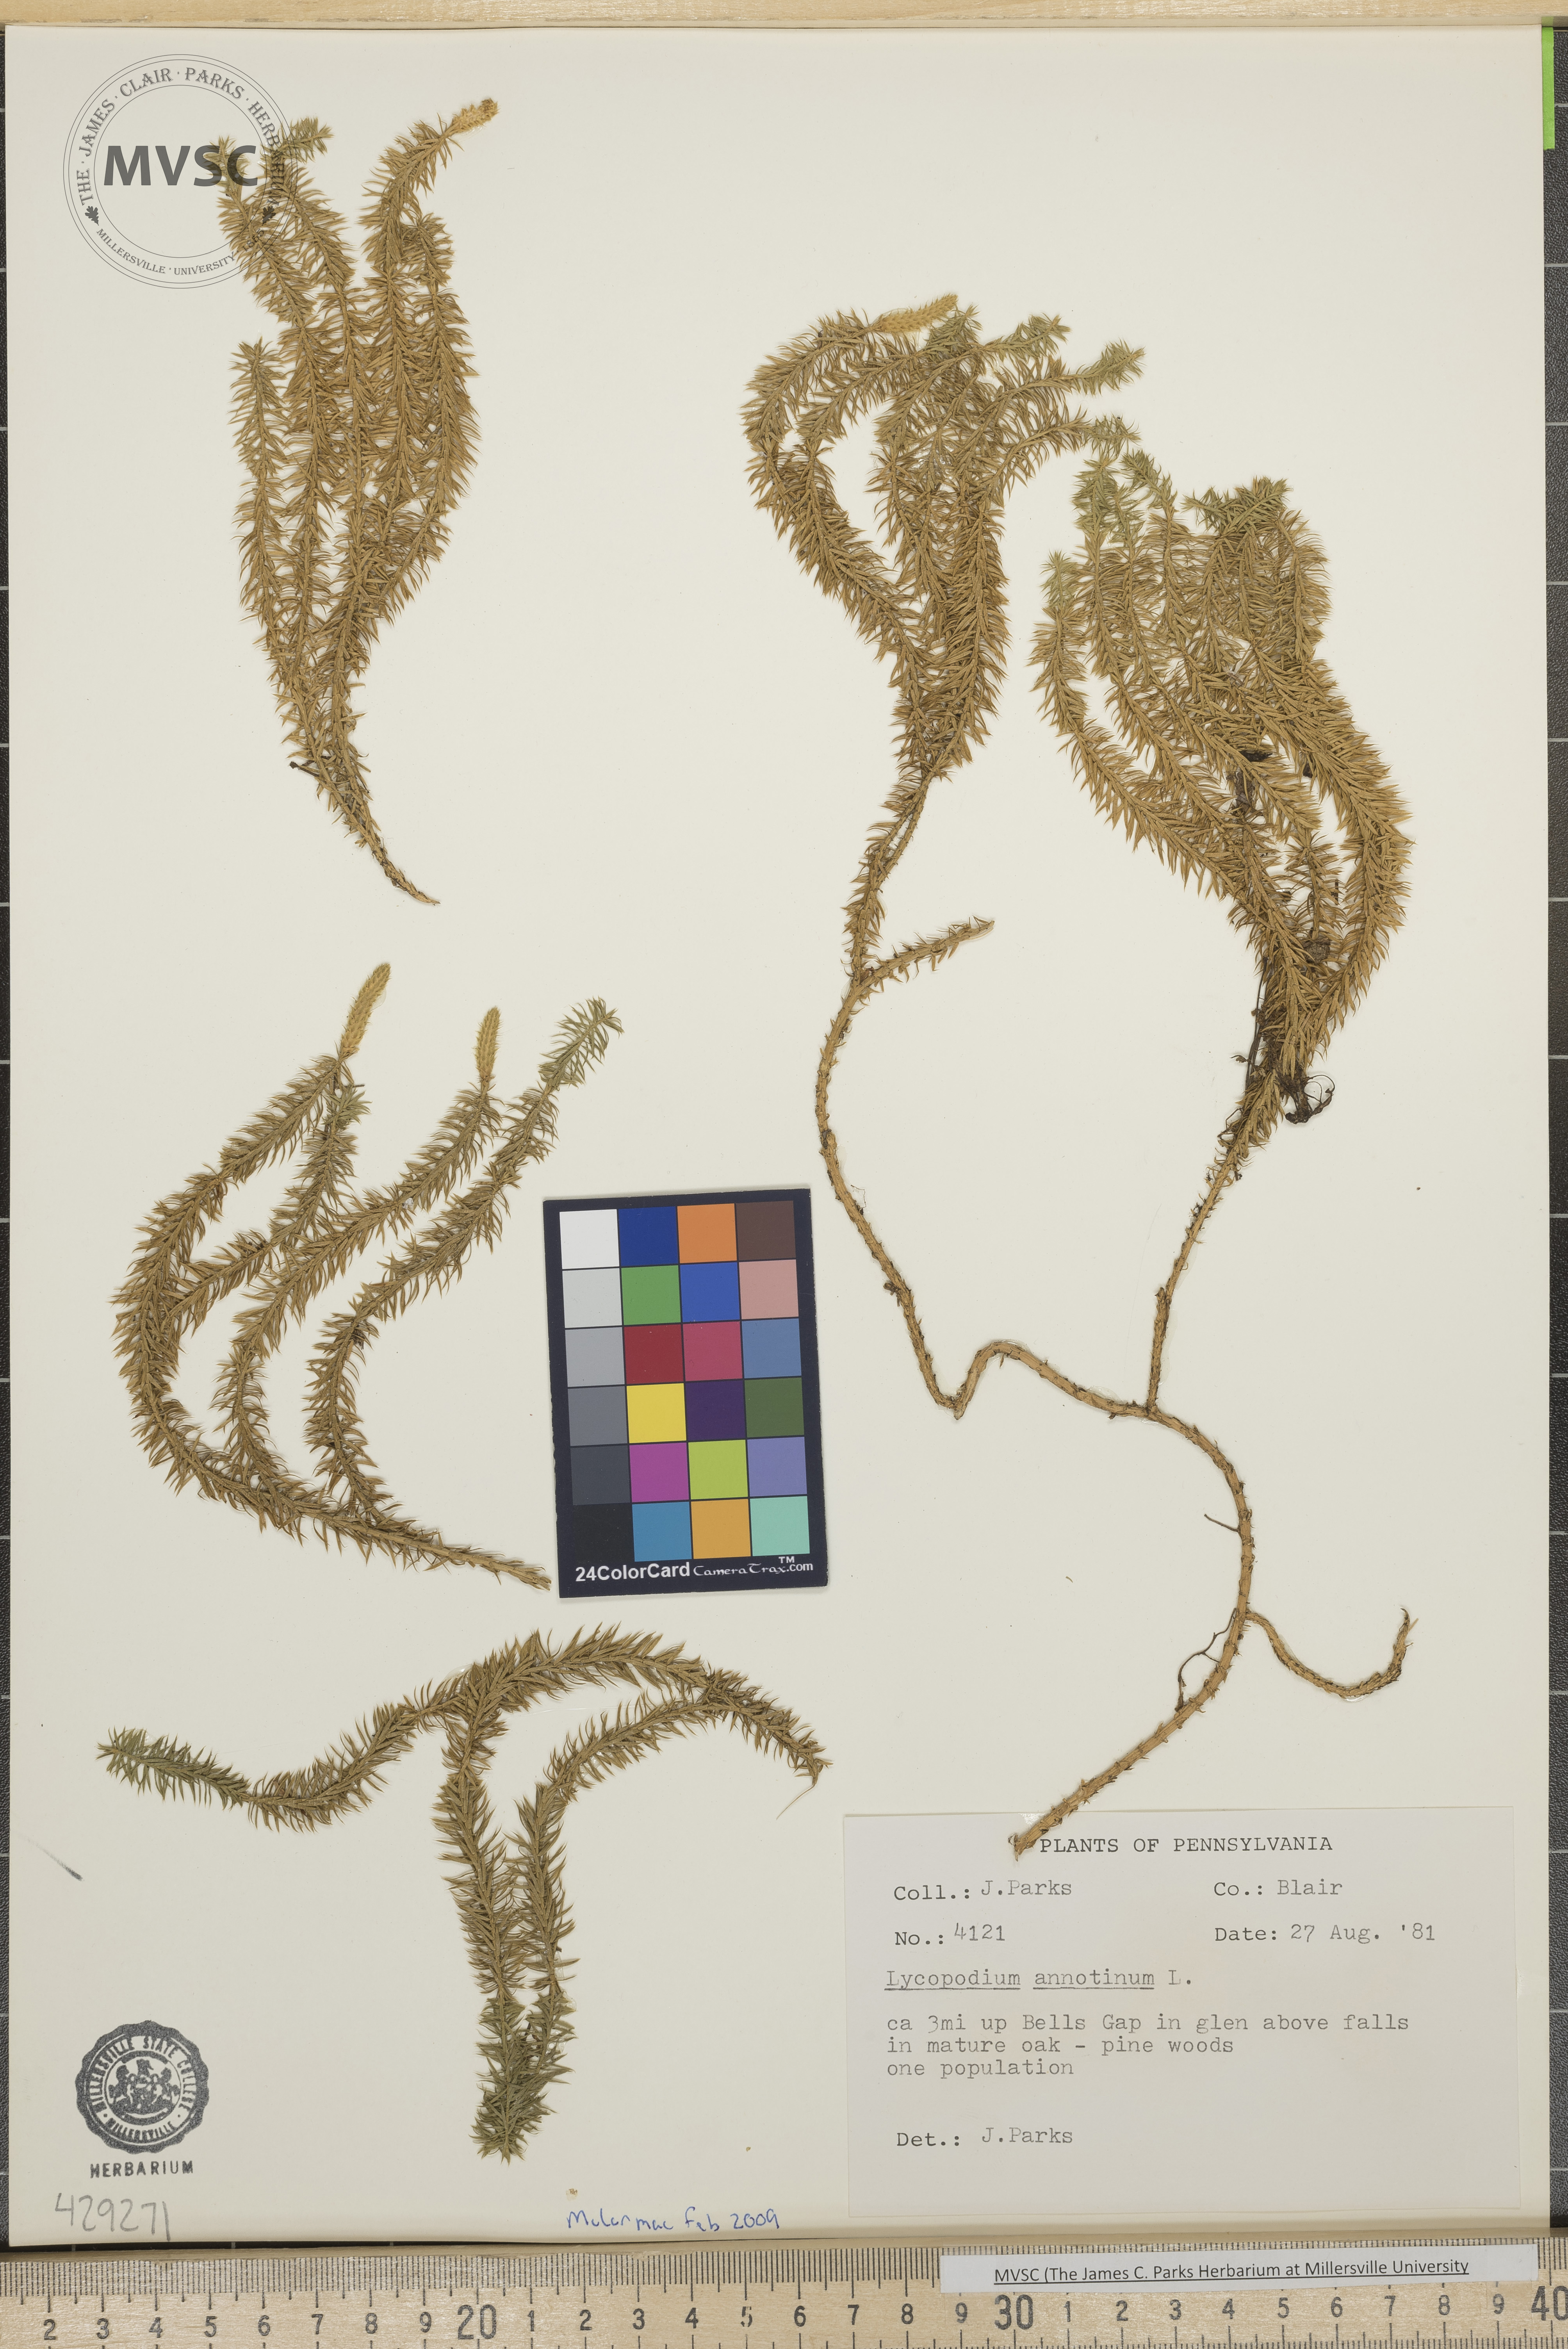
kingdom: Plantae
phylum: Tracheophyta
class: Lycopodiopsida
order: Lycopodiales
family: Lycopodiaceae
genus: Spinulum
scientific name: Spinulum annotinum
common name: Interrupted club-moss
